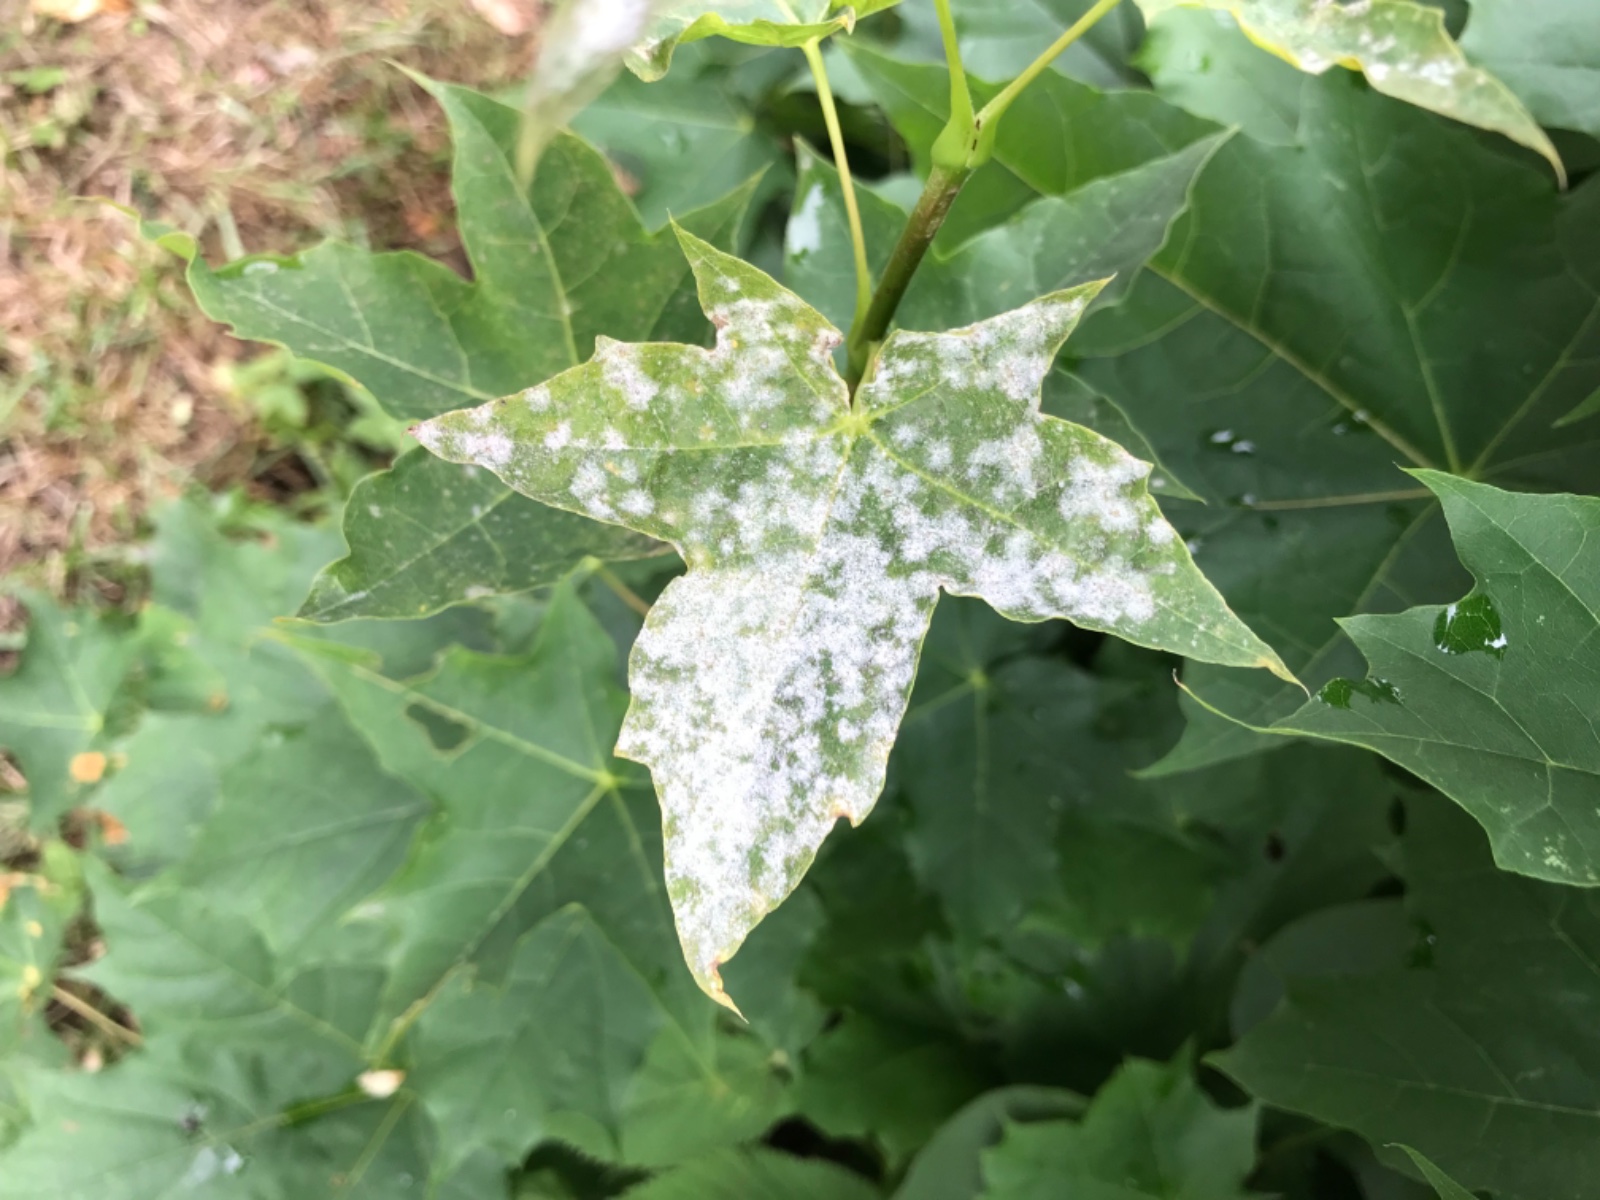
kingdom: Fungi
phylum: Ascomycota
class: Leotiomycetes
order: Helotiales
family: Erysiphaceae
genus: Sawadaea
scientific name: Sawadaea
